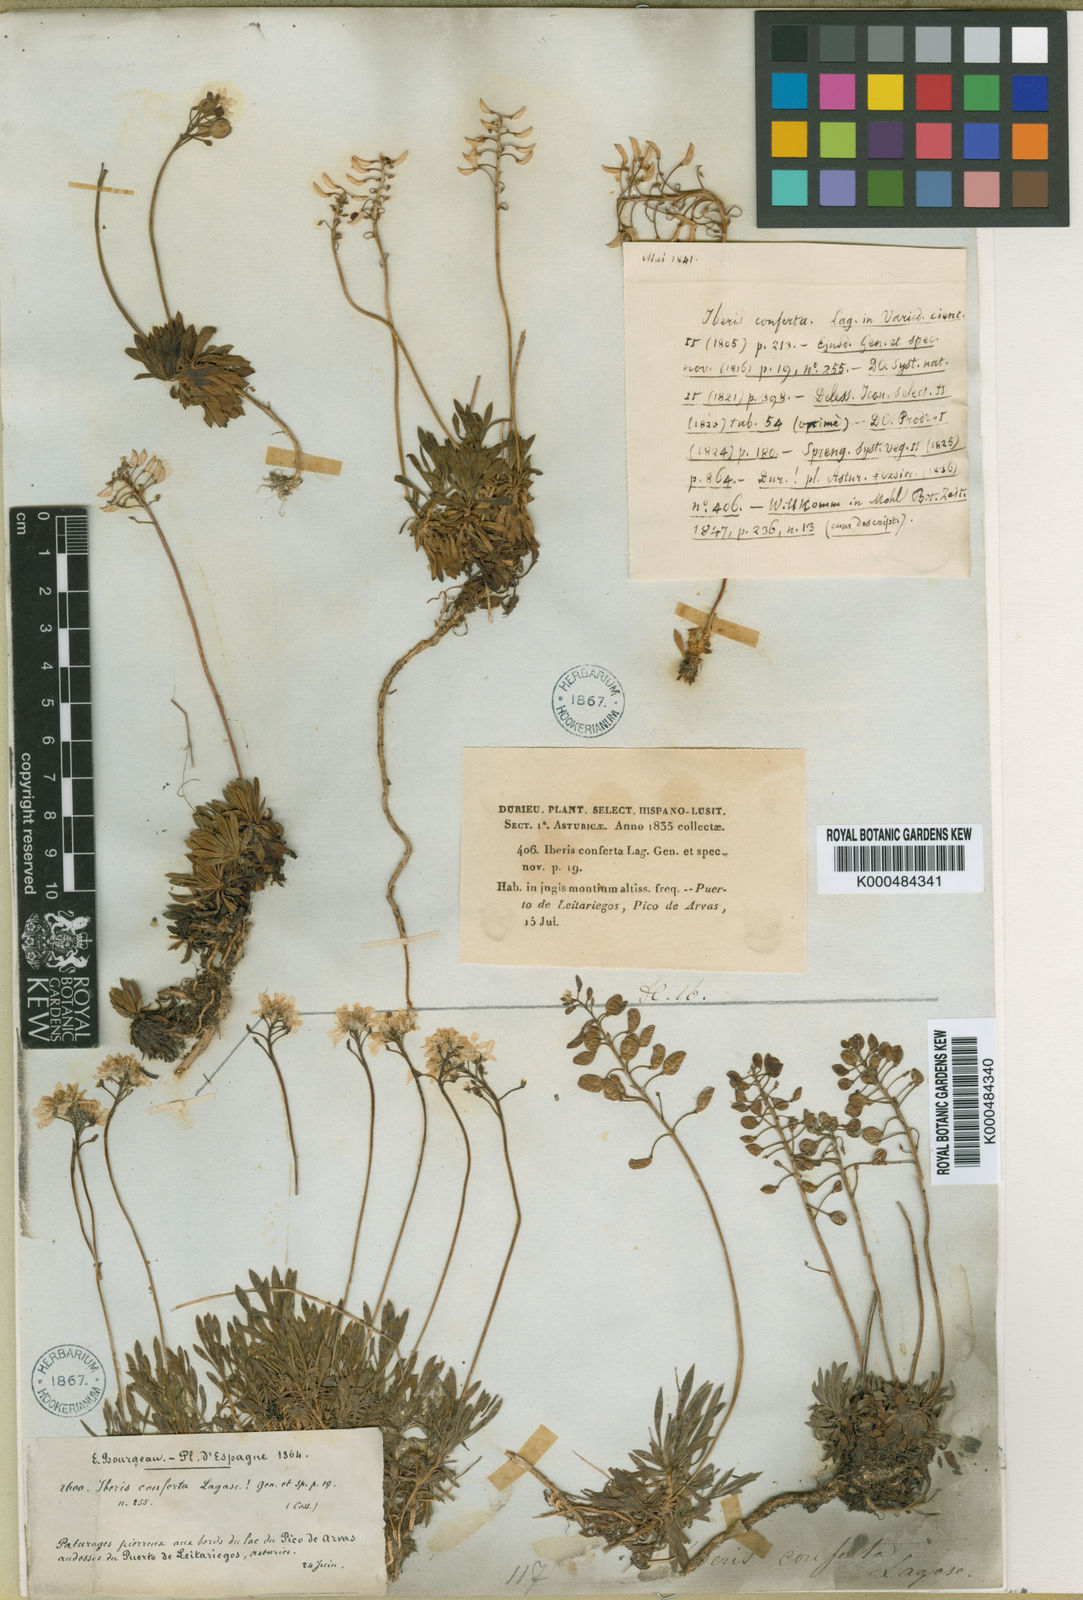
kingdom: Plantae
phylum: Tracheophyta
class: Magnoliopsida
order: Brassicales
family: Brassicaceae
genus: Teesdalia
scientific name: Teesdalia conferta
